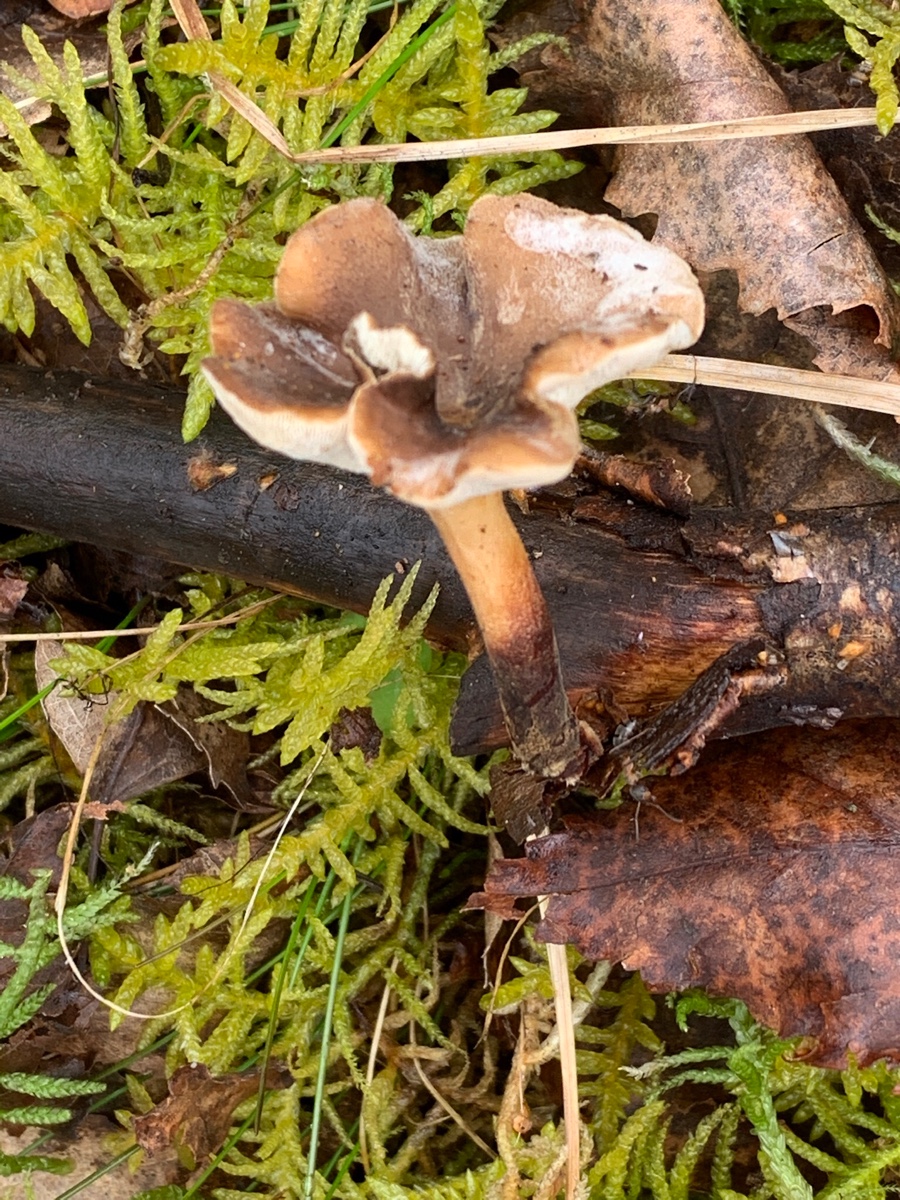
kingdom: Fungi
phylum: Basidiomycota
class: Agaricomycetes
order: Polyporales
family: Polyporaceae
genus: Lentinus
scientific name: Lentinus brumalis
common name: vinter-stilkporesvamp
